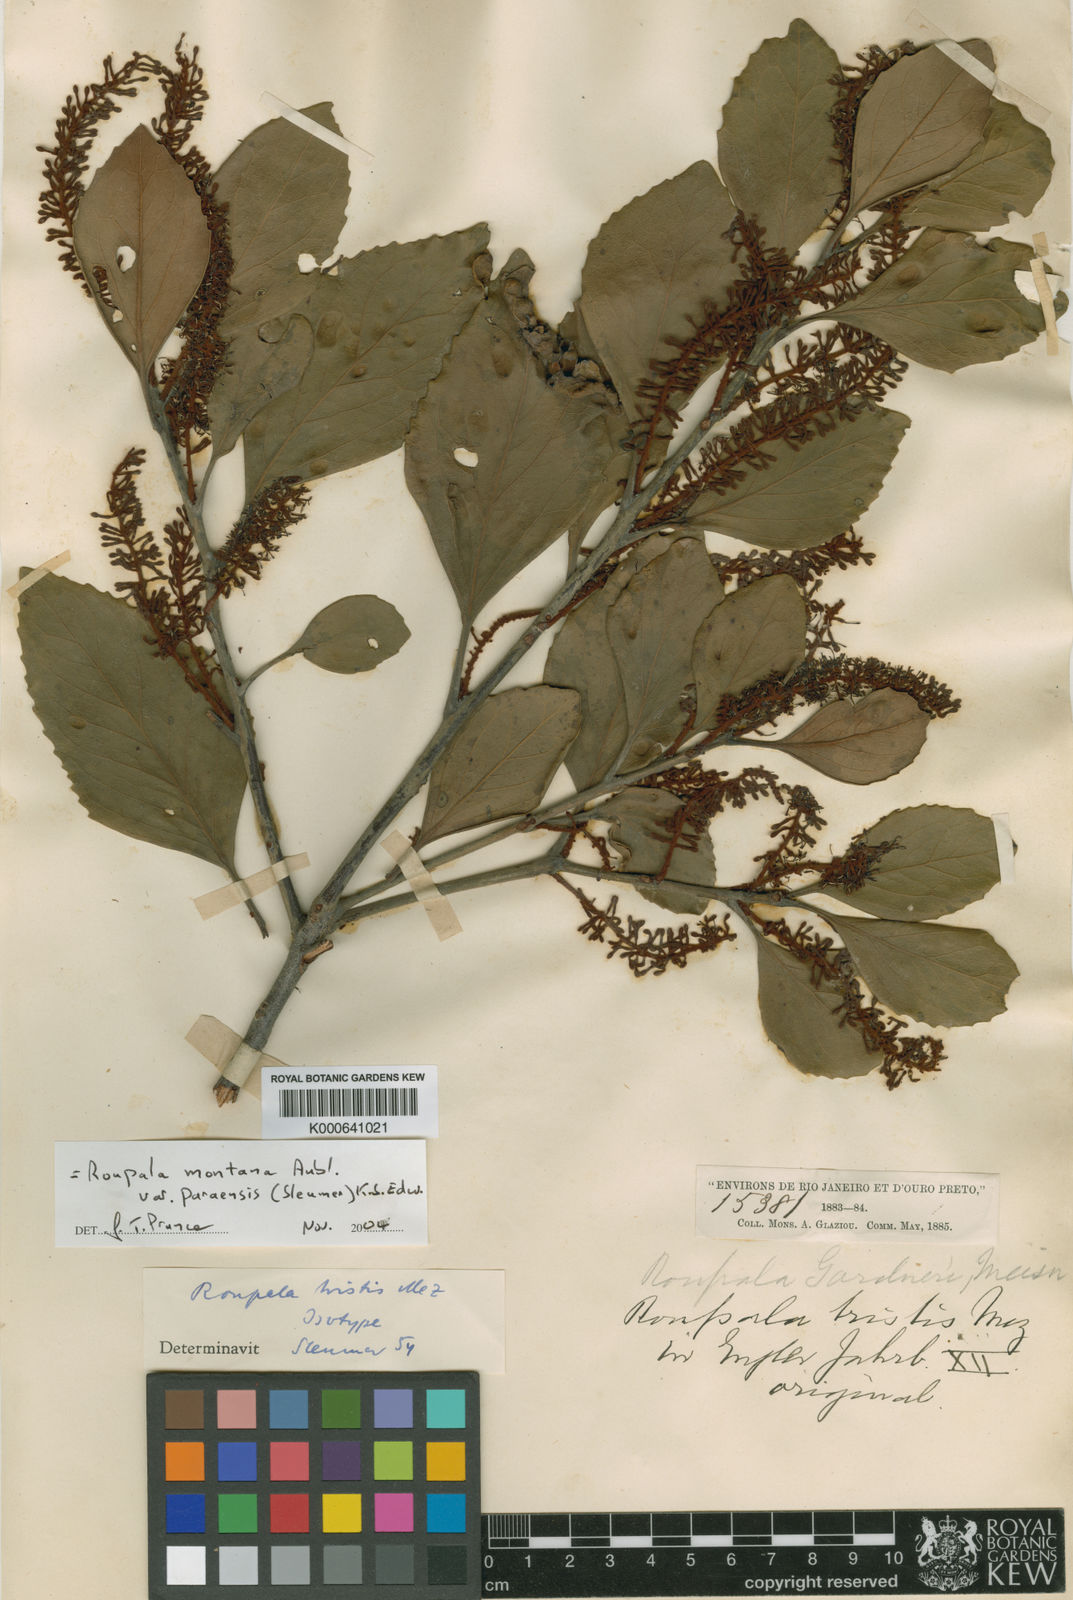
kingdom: Plantae
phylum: Tracheophyta
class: Magnoliopsida
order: Proteales
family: Proteaceae
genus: Roupala
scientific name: Roupala montana
